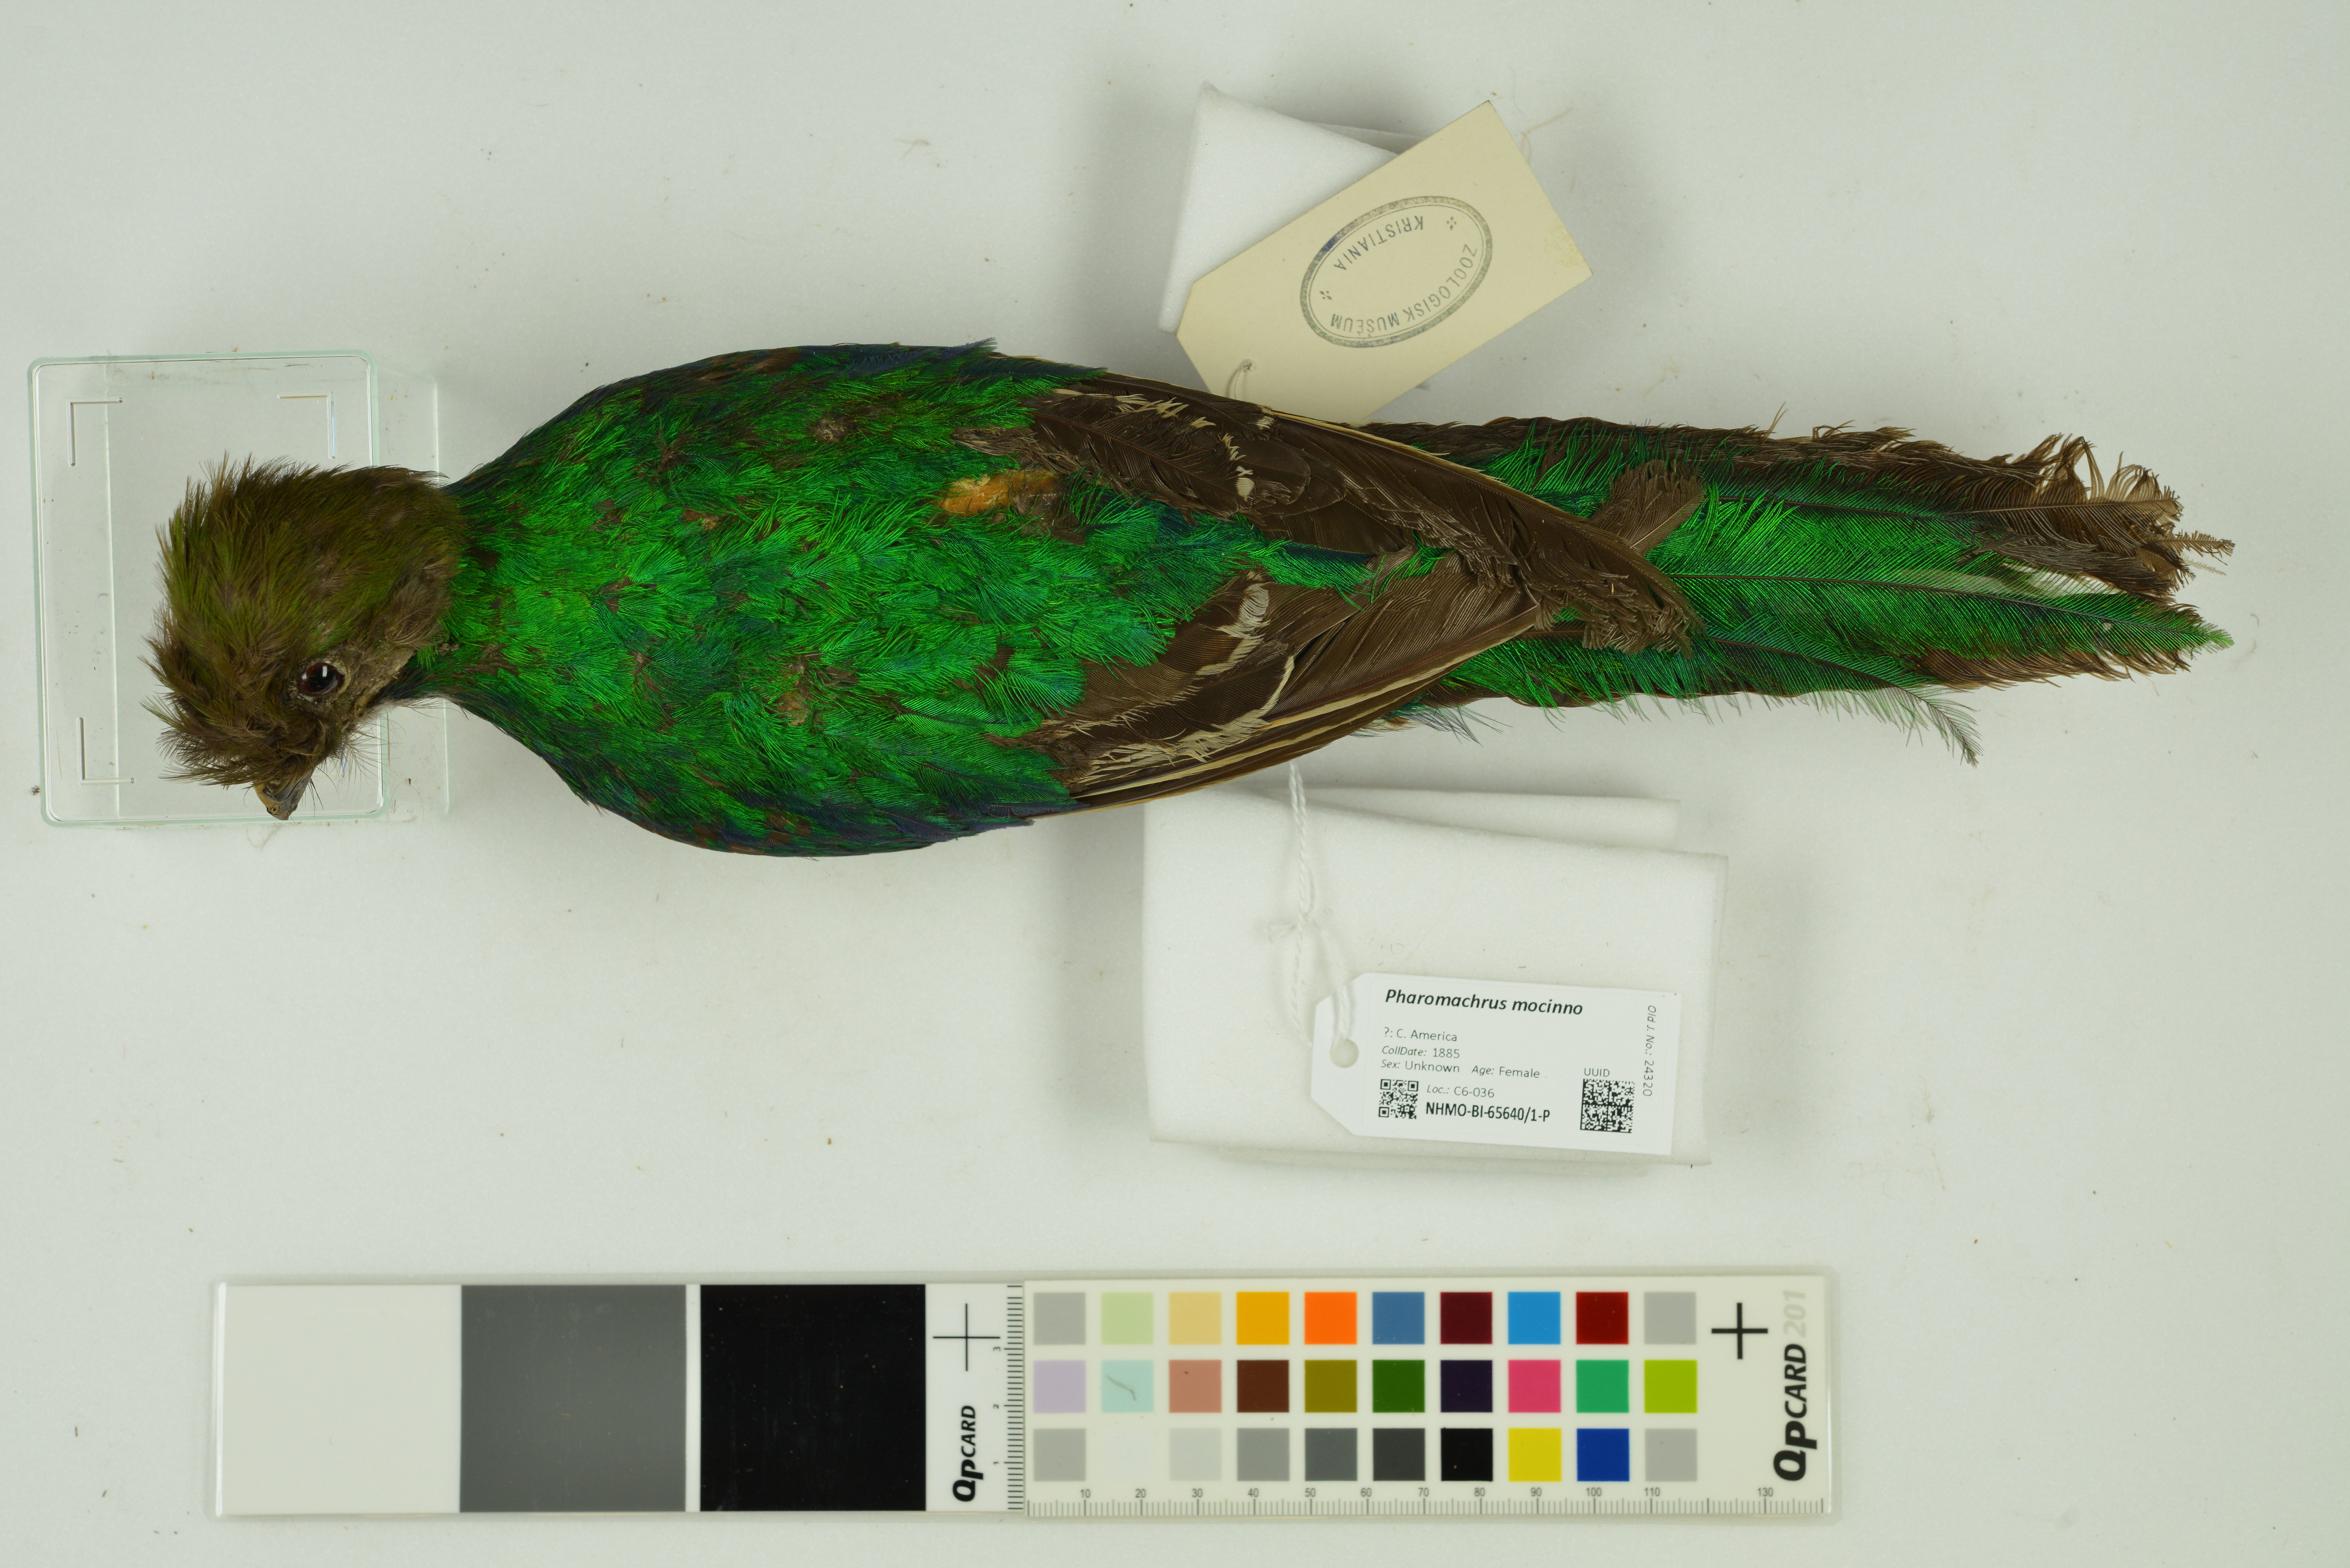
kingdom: Animalia
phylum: Chordata
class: Aves
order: Trogoniformes
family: Trogonidae
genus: Pharomachrus
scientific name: Pharomachrus mocinno
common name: Resplendent quetzal
